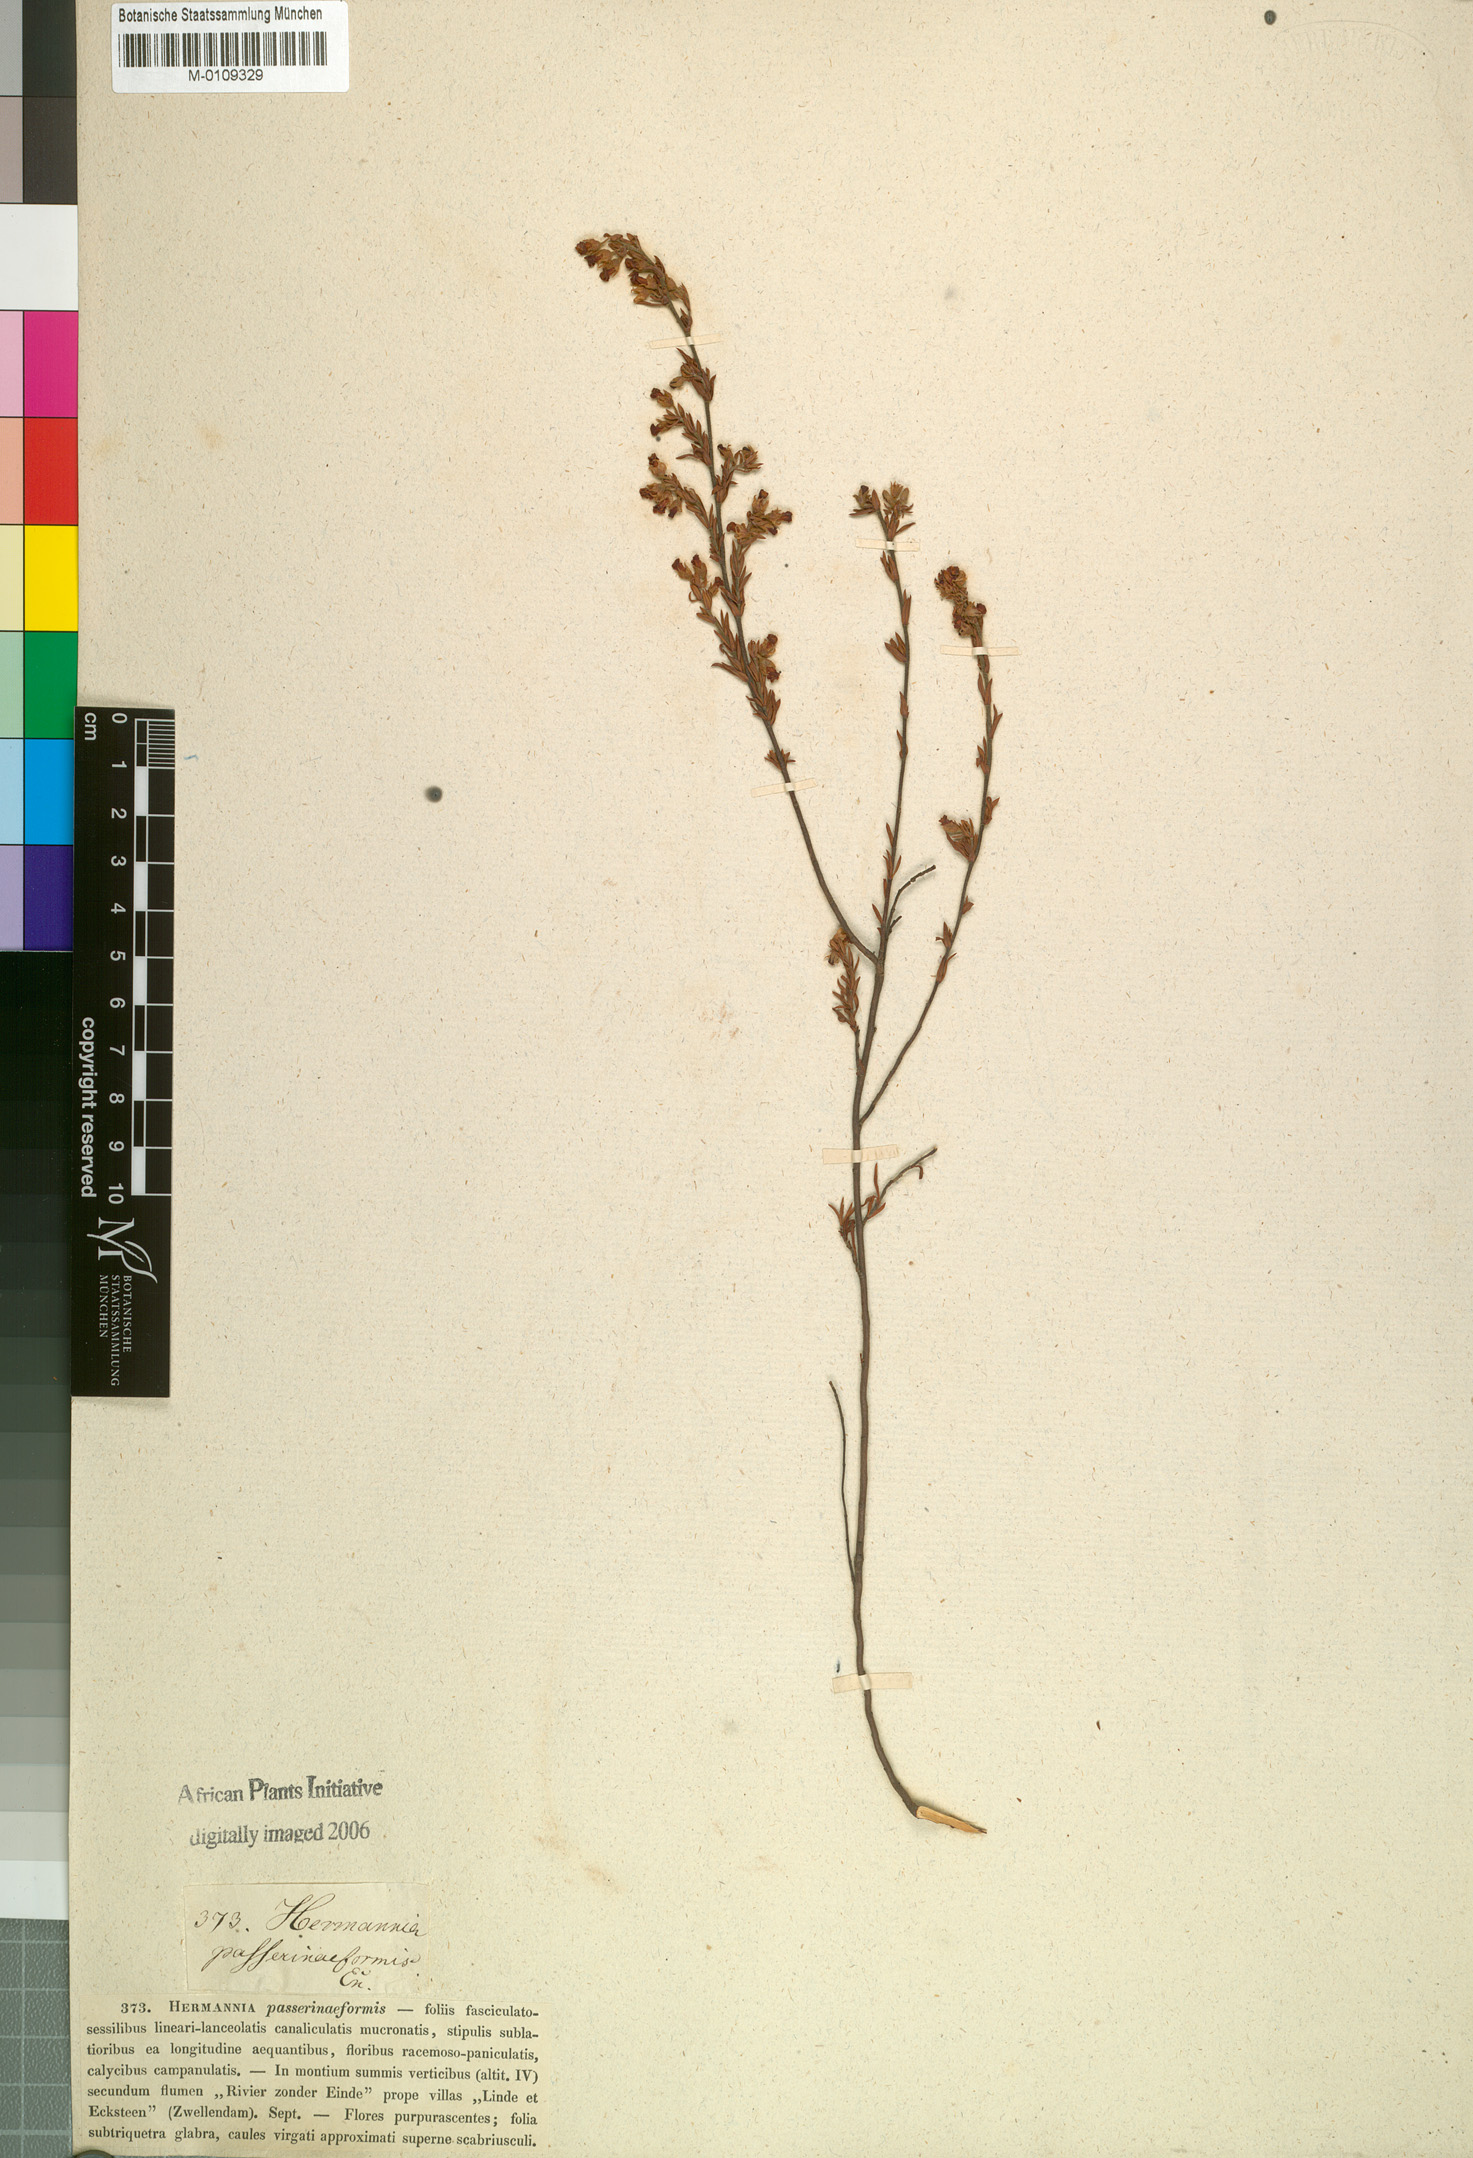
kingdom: Plantae
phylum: Tracheophyta
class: Magnoliopsida
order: Malvales
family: Malvaceae
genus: Hermannia
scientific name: Hermannia filifolia
